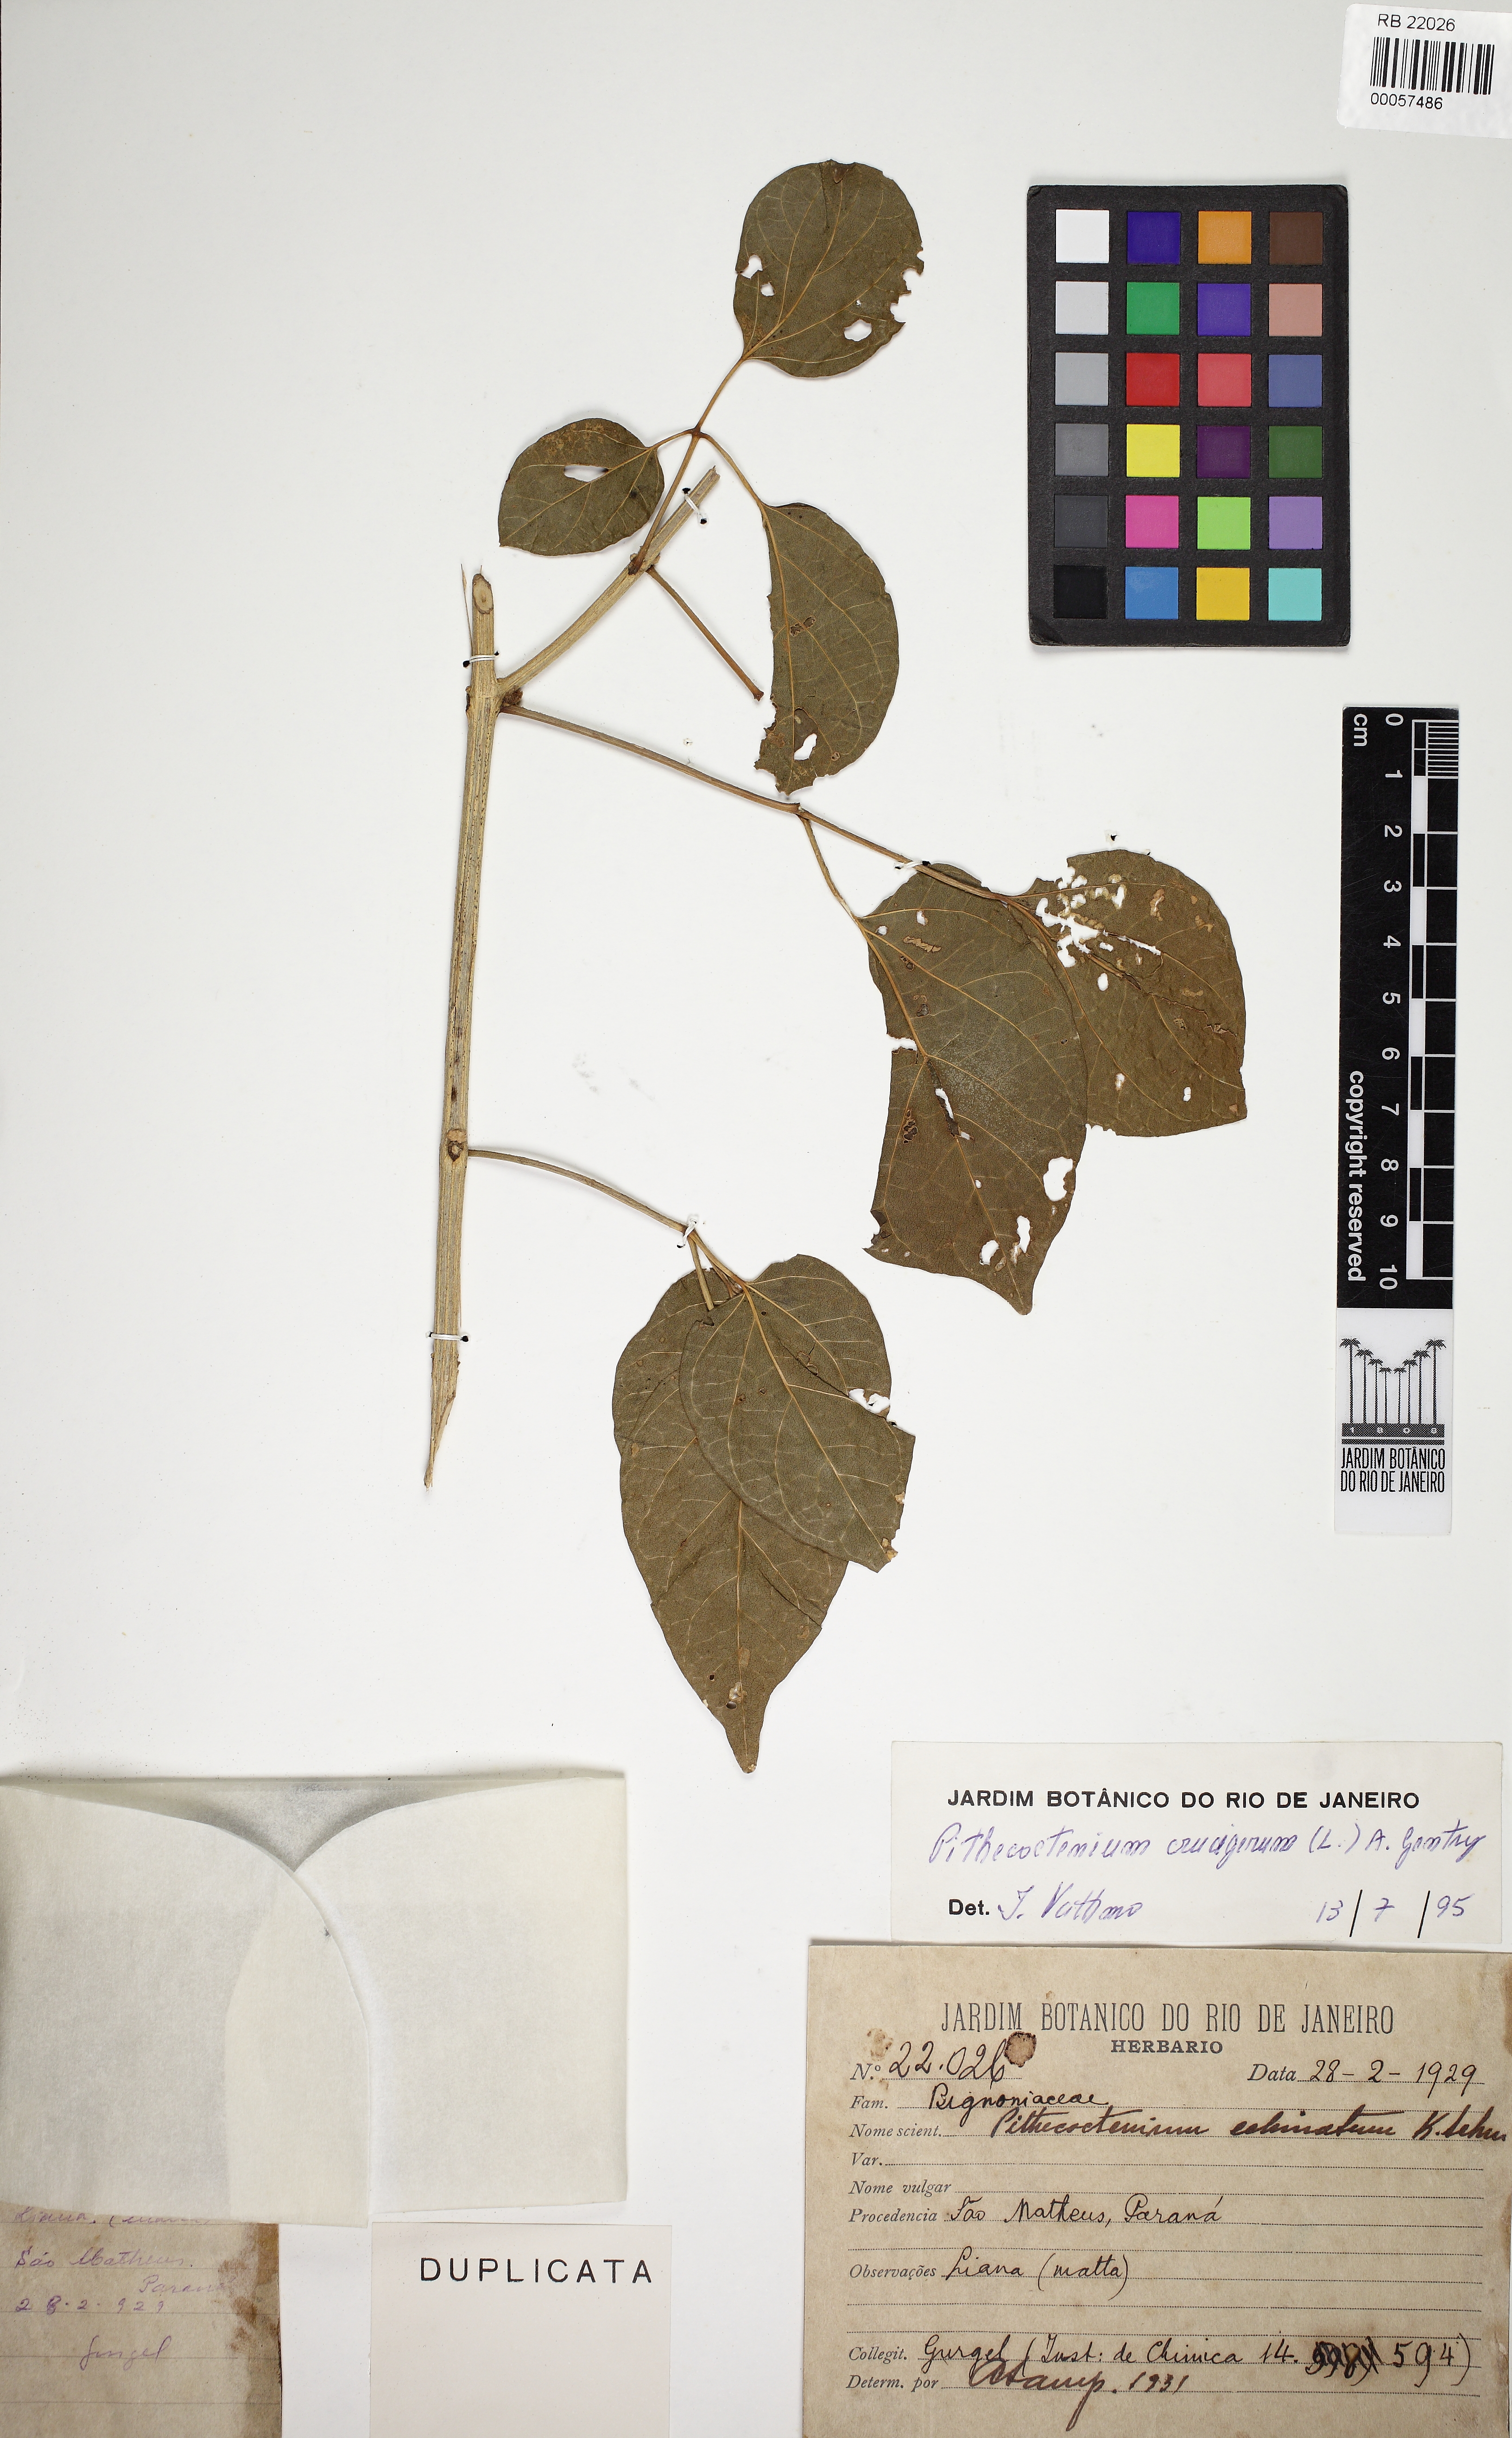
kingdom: Plantae
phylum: Tracheophyta
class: Magnoliopsida
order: Lamiales
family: Bignoniaceae
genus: Amphilophium
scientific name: Amphilophium crucigerum
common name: Monkey comb
